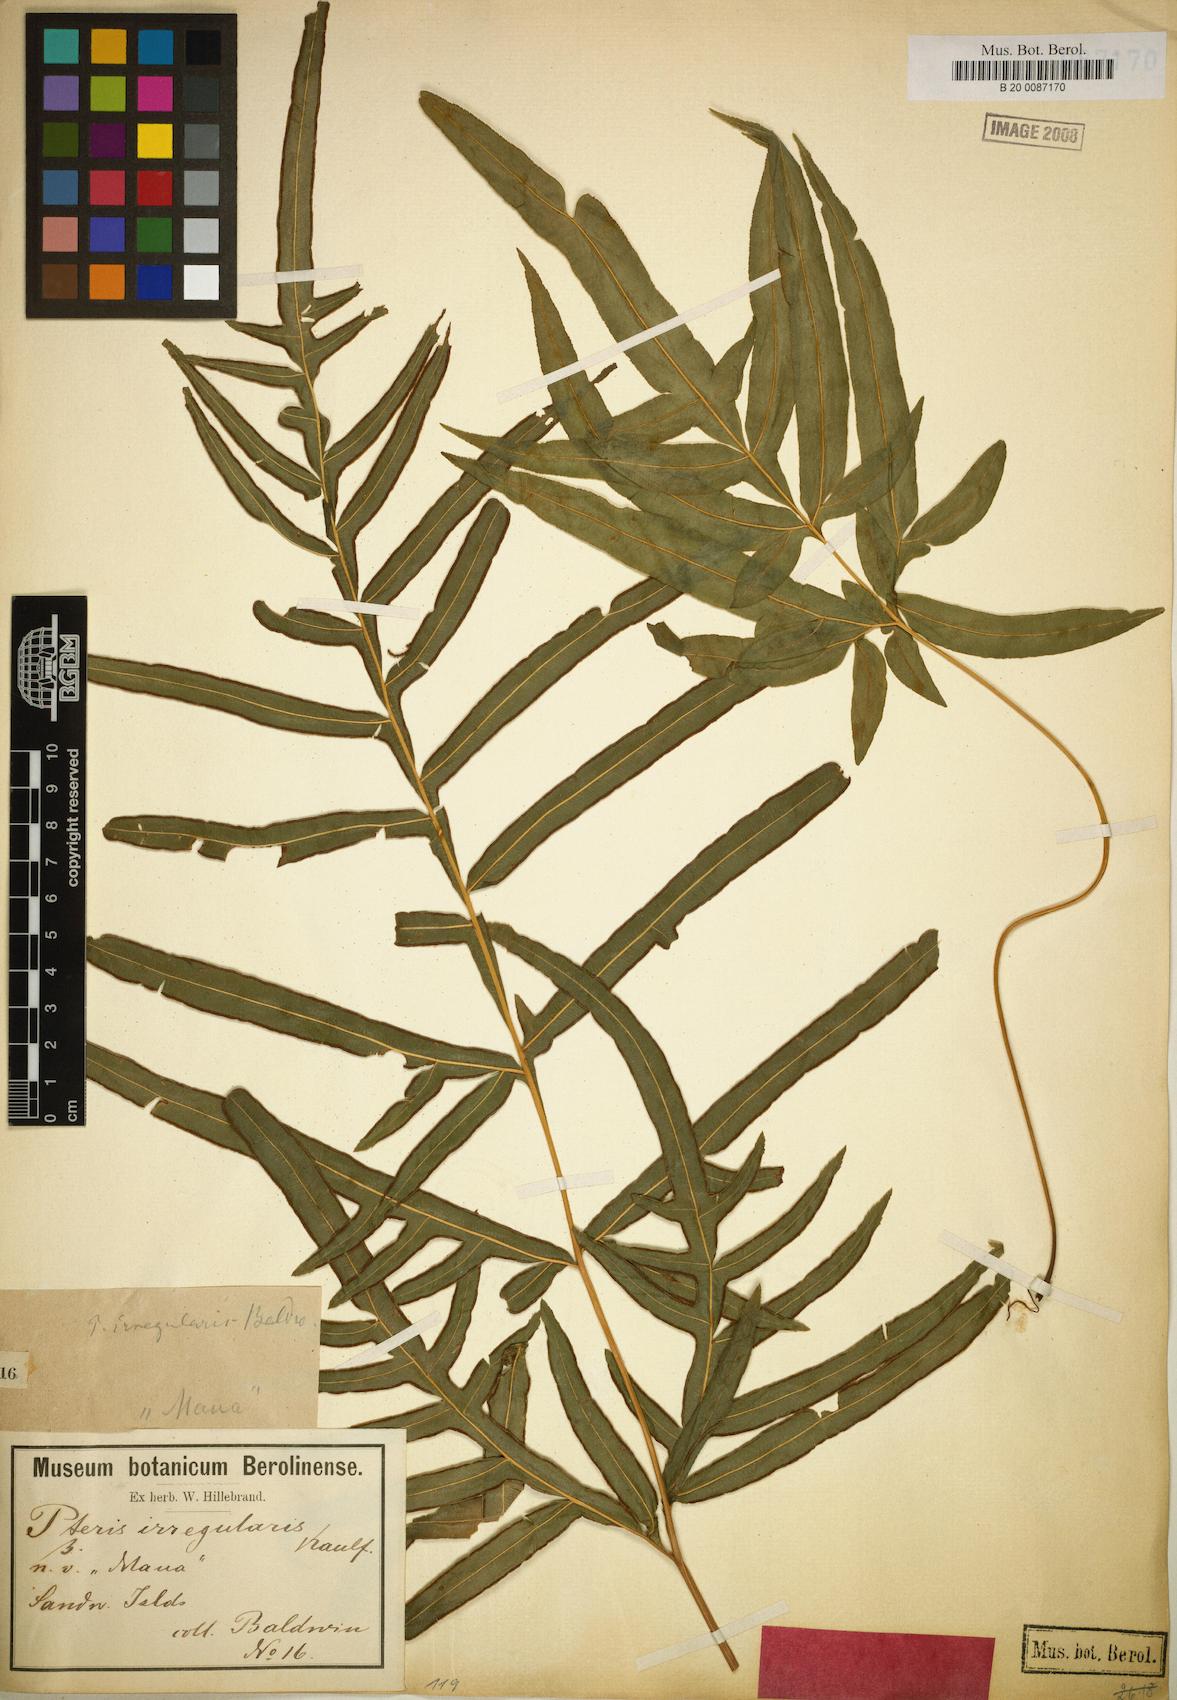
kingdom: Plantae
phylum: Tracheophyta
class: Polypodiopsida
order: Polypodiales
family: Pteridaceae
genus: Pteris
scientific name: Pteris irregularis
